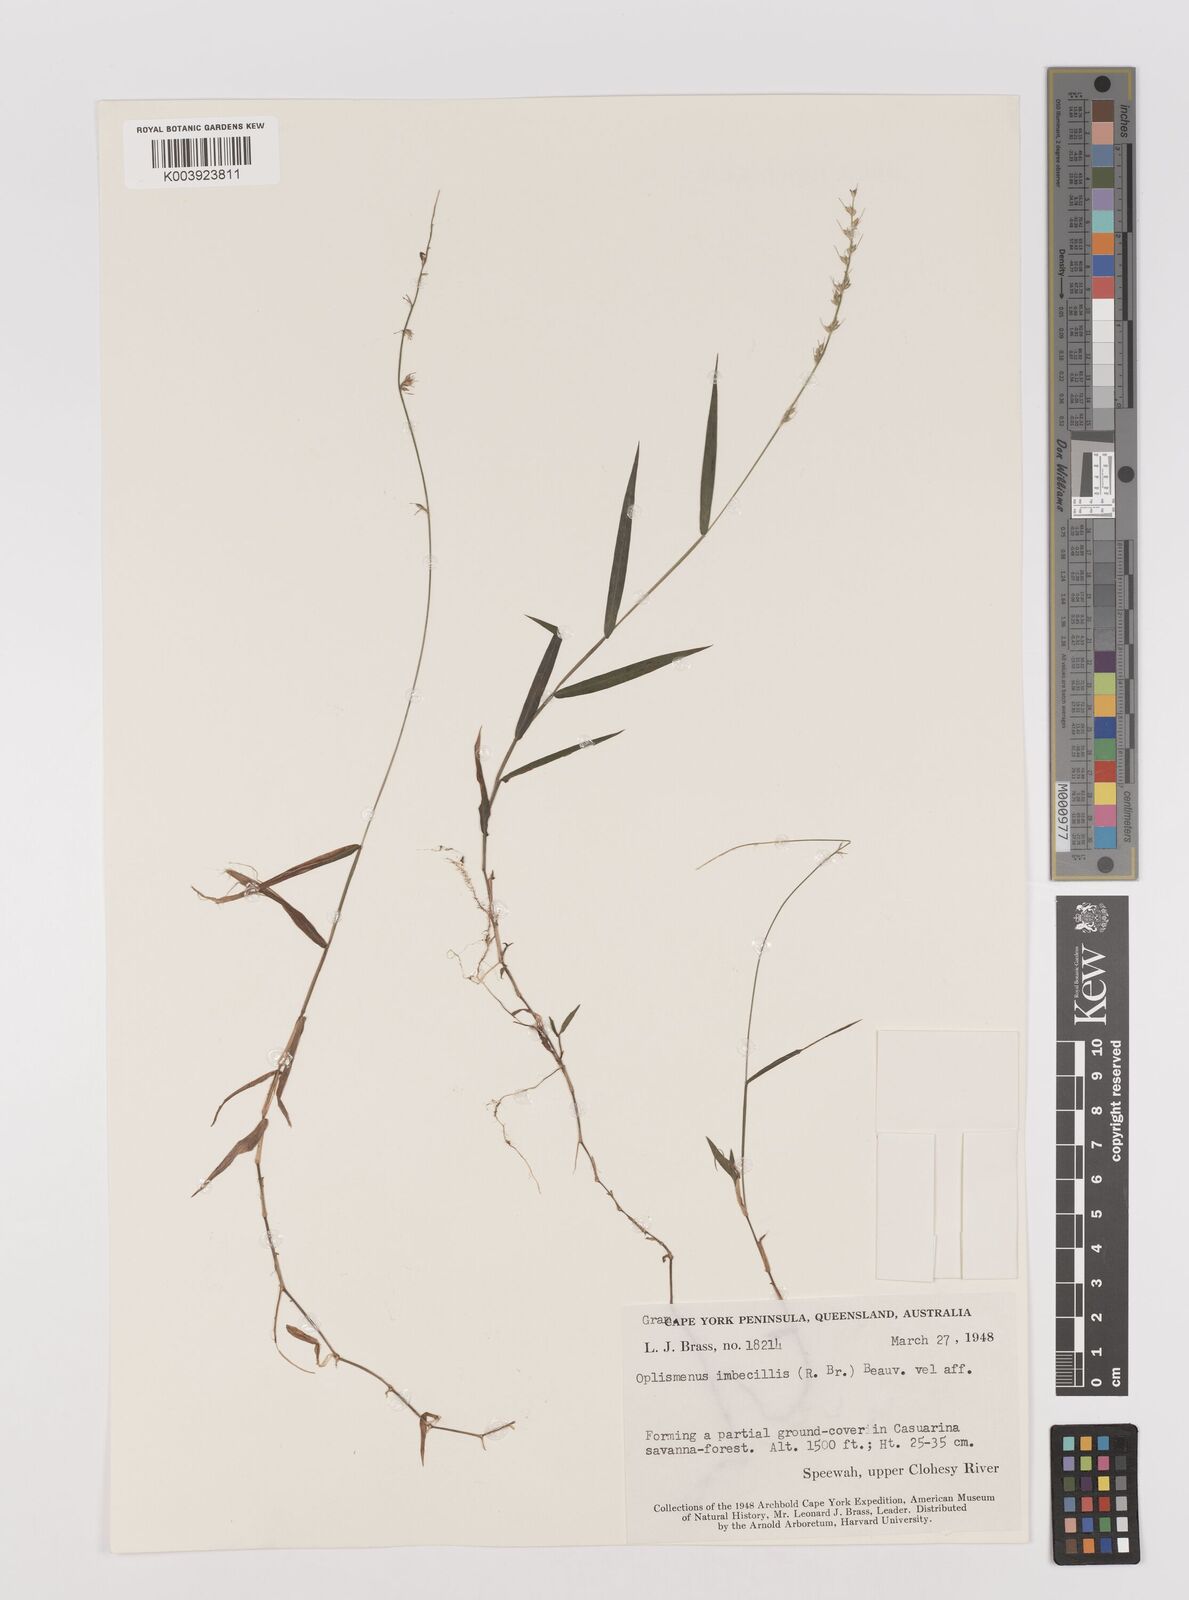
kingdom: Plantae
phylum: Tracheophyta
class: Liliopsida
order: Poales
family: Poaceae
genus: Oplismenus
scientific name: Oplismenus hirtellus
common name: Basketgrass
